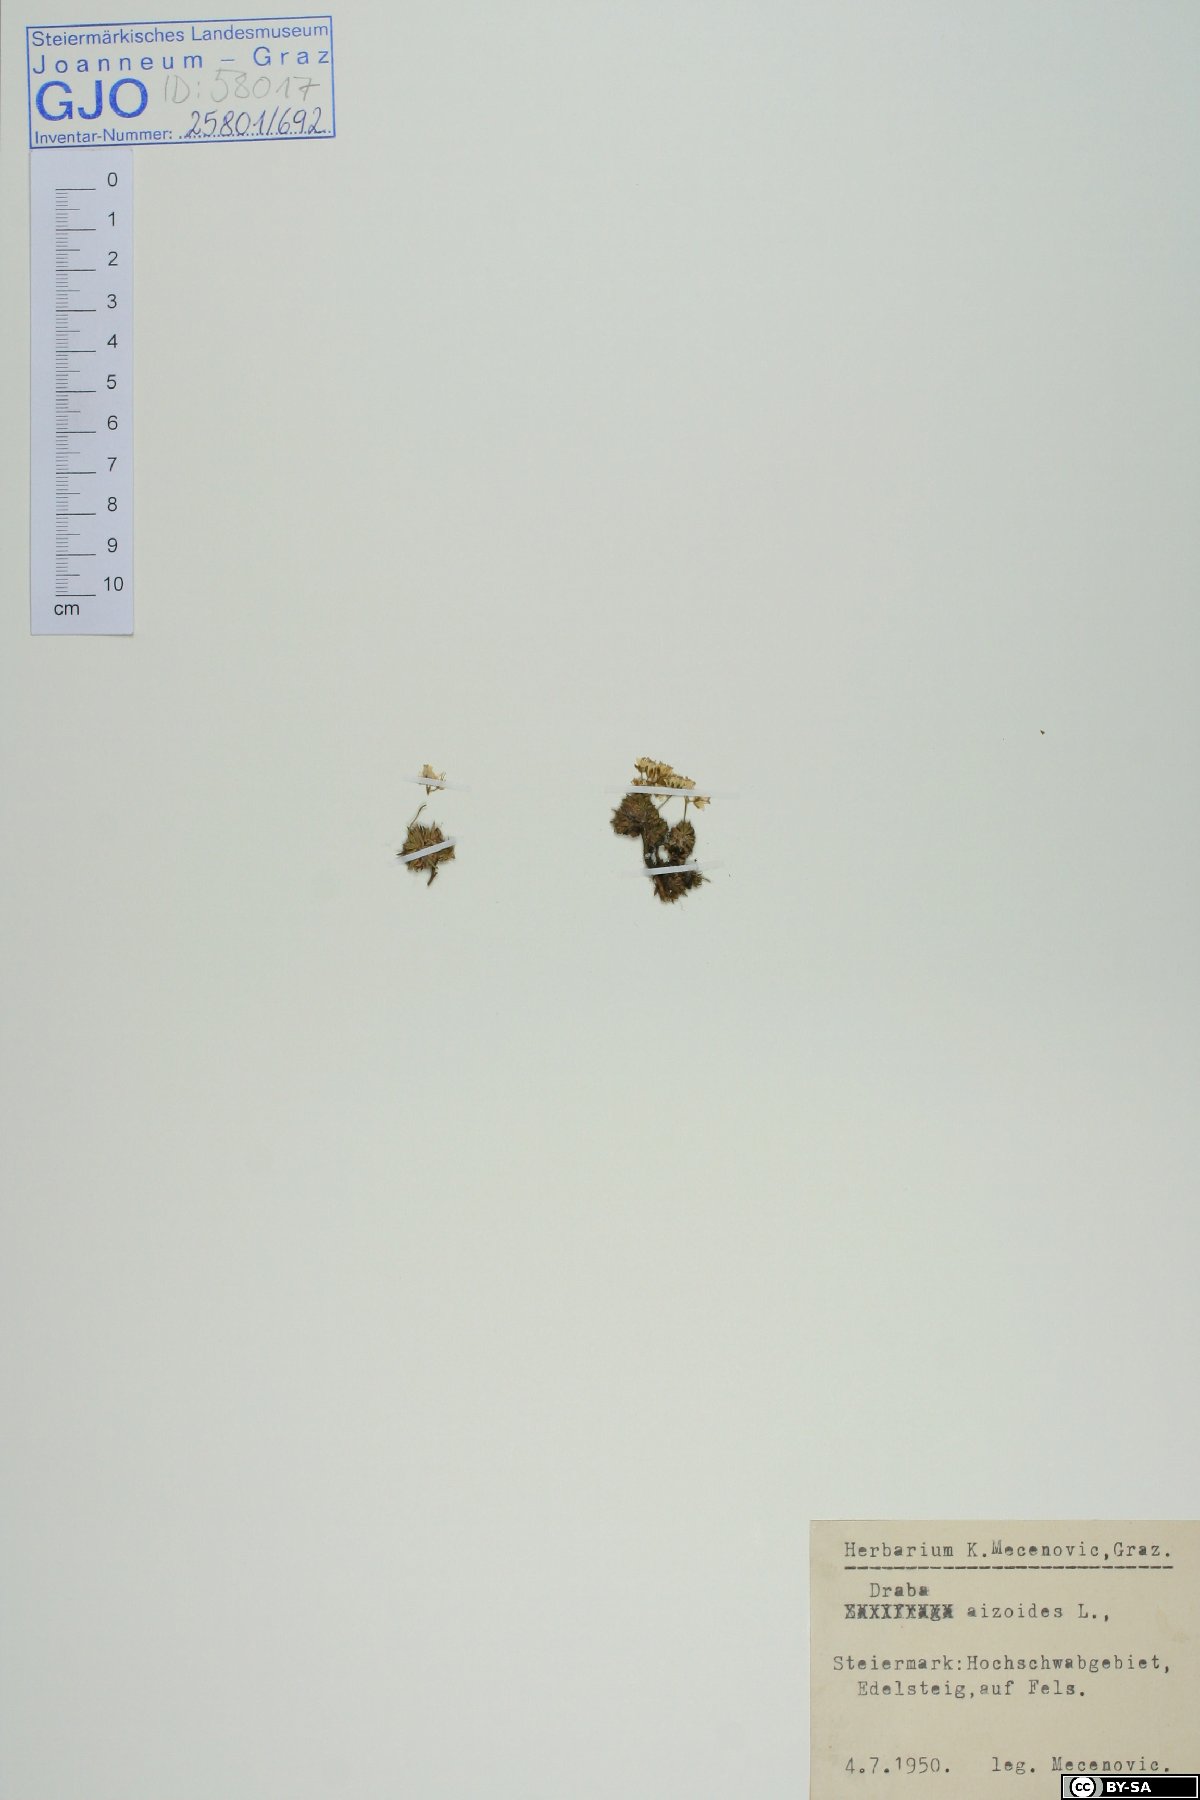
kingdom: Plantae
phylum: Tracheophyta
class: Magnoliopsida
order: Brassicales
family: Brassicaceae
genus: Draba
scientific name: Draba aizoides
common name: Yellow whitlowgrass
